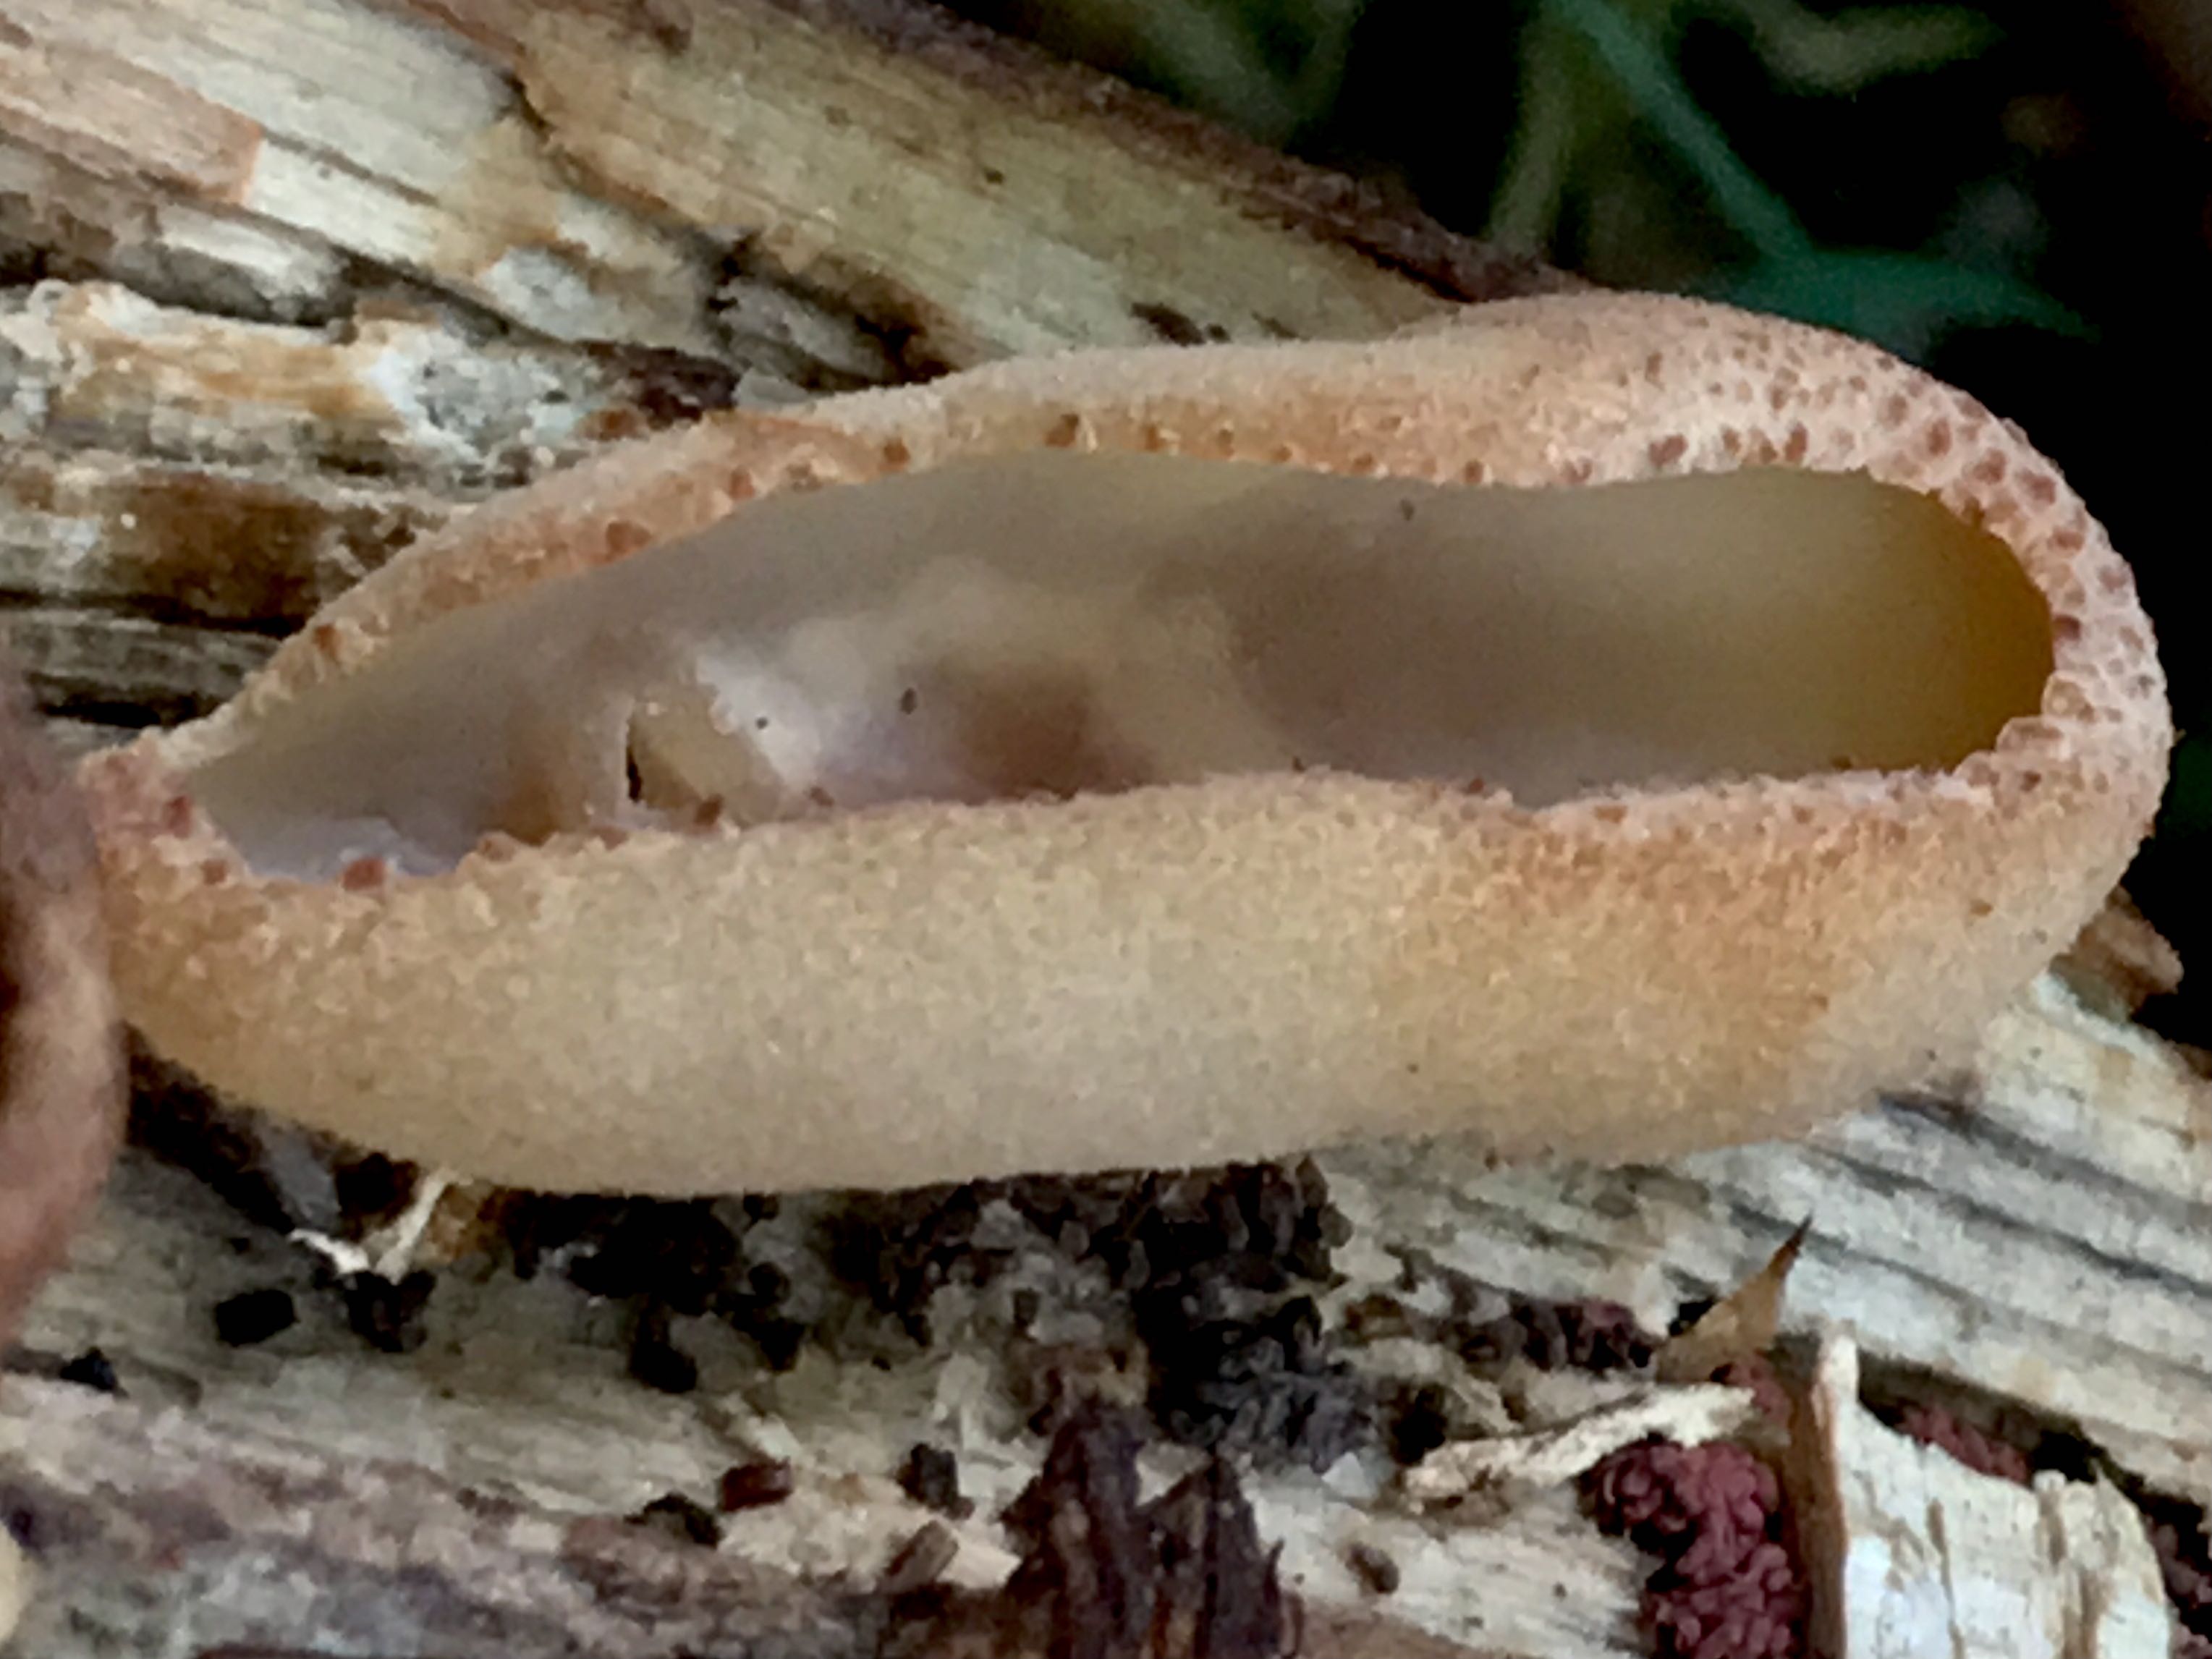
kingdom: Fungi
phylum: Ascomycota
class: Pezizomycetes
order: Pezizales
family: Pezizaceae
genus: Peziza
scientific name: Peziza varia
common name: Ved-bægersvamp
